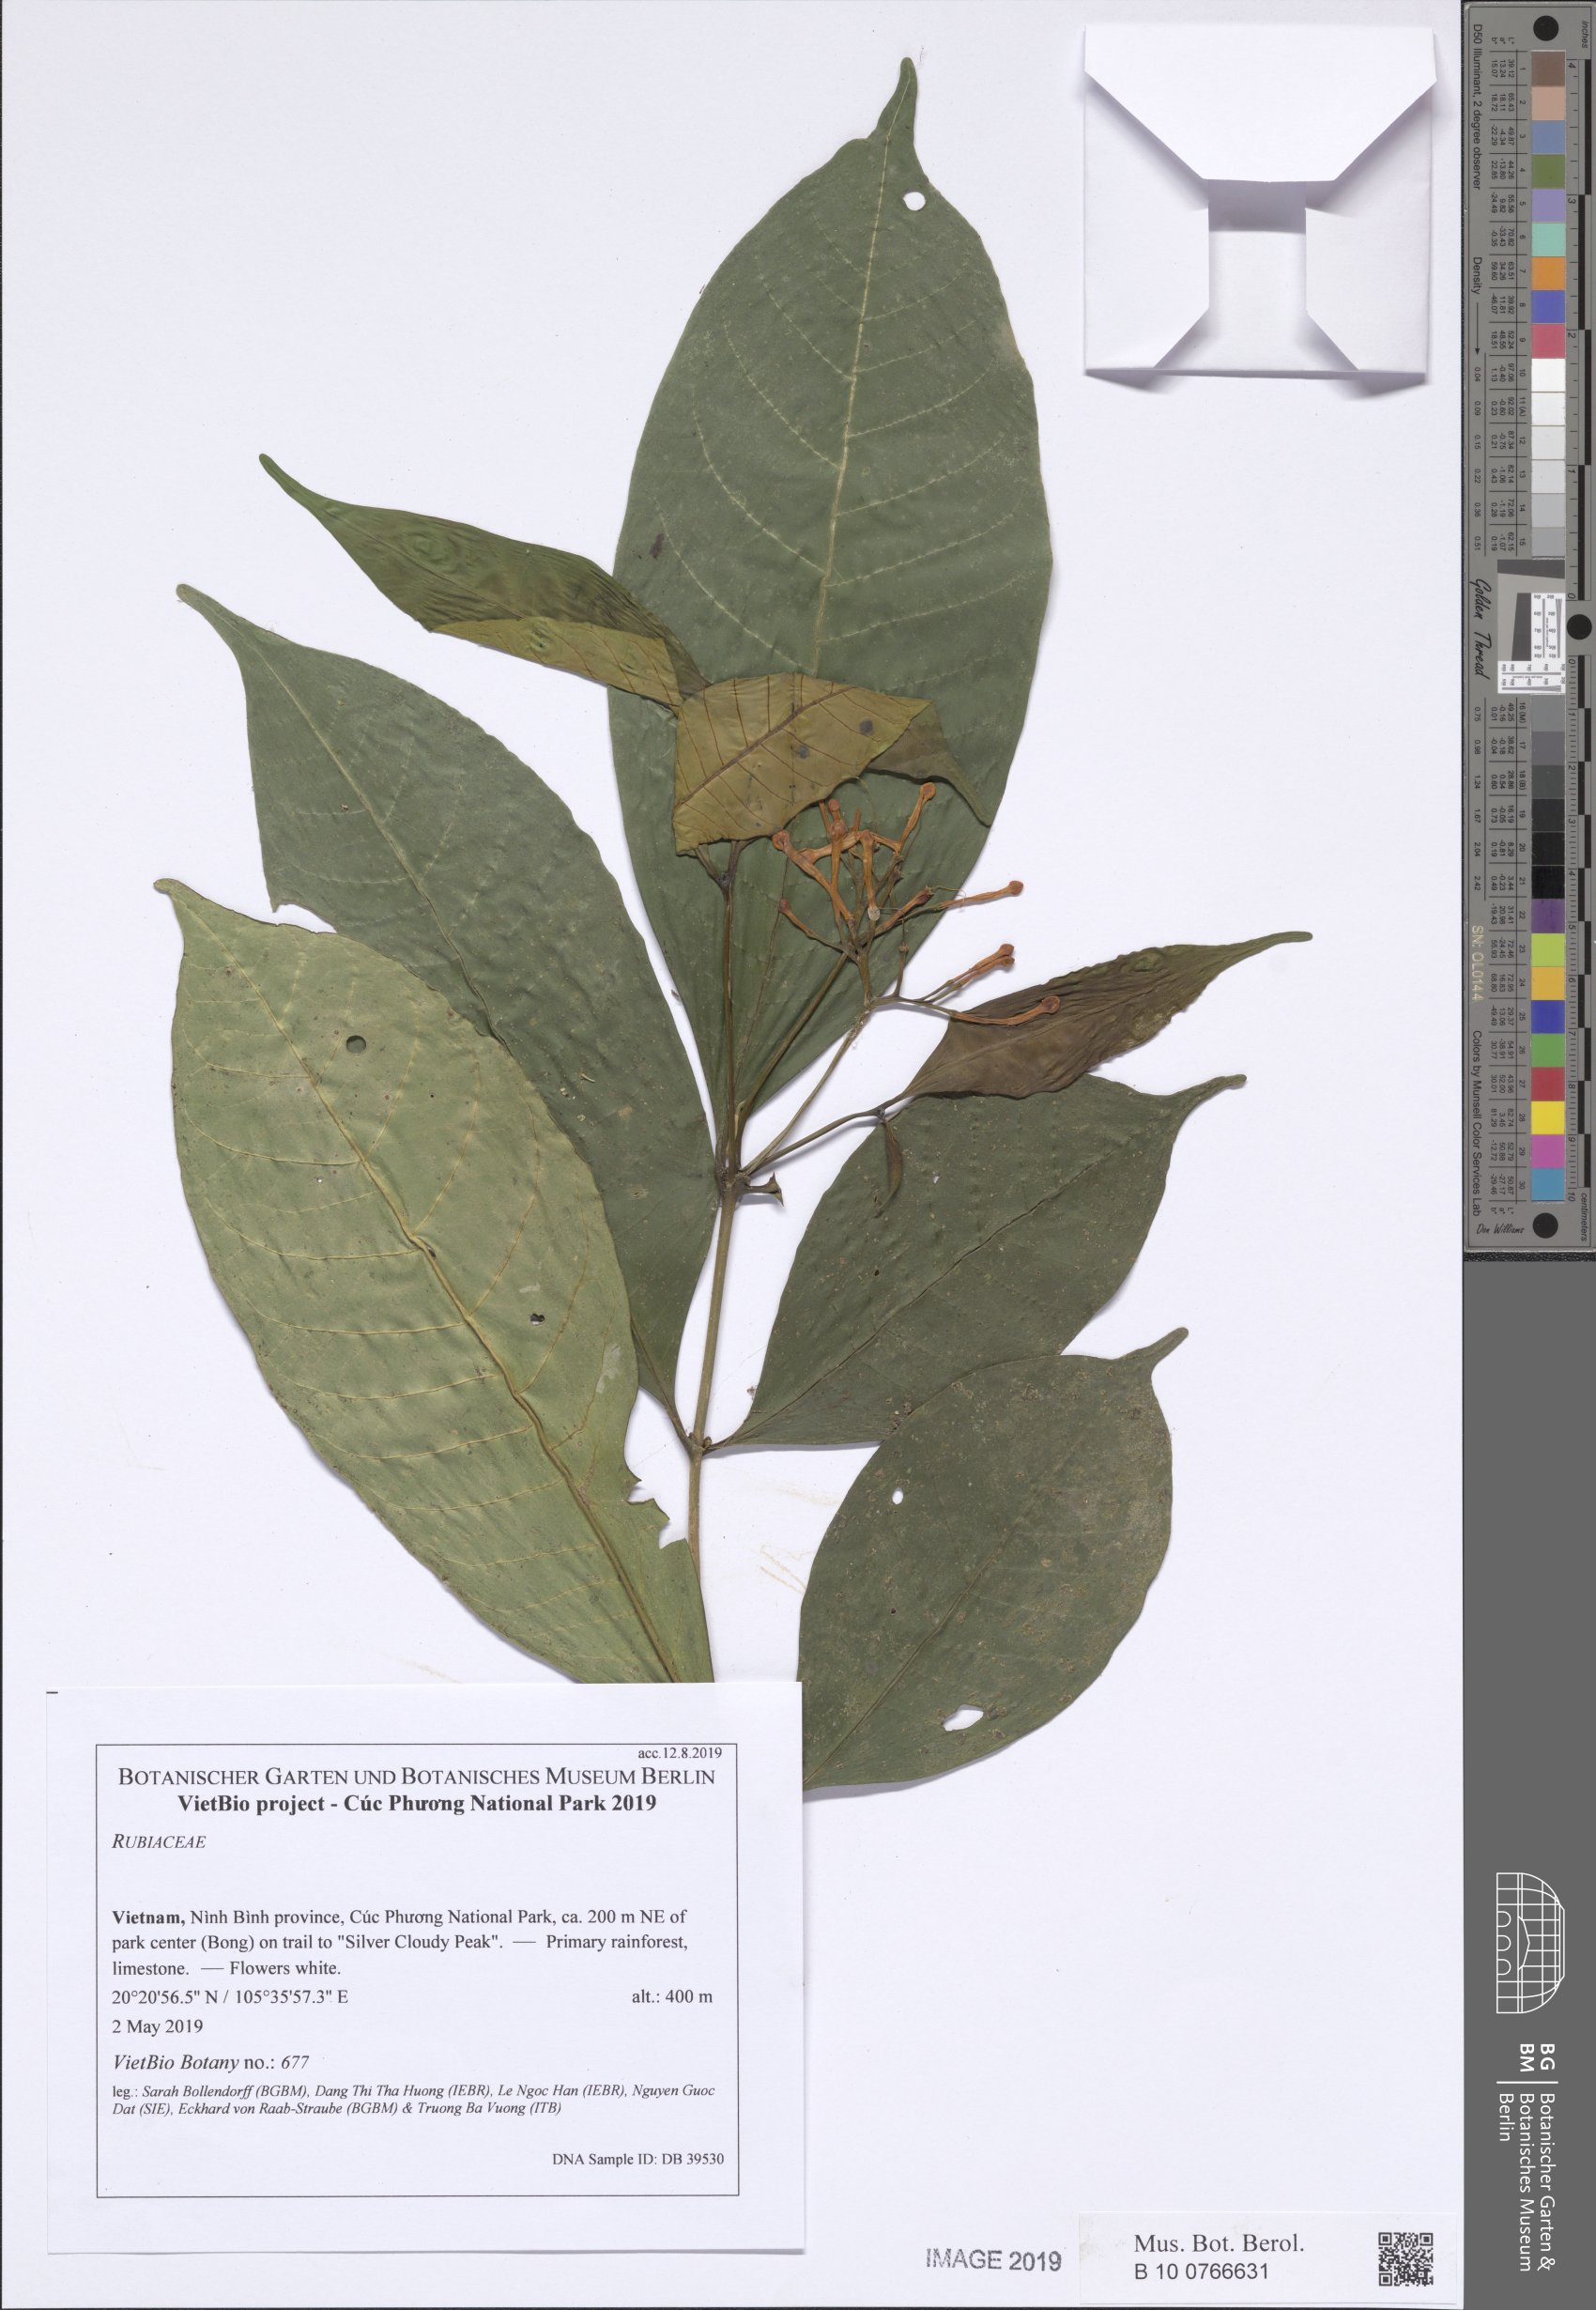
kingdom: Plantae
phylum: Tracheophyta
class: Magnoliopsida
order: Gentianales
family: Apocynaceae
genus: Tabernaemontana
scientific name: Tabernaemontana bovina
